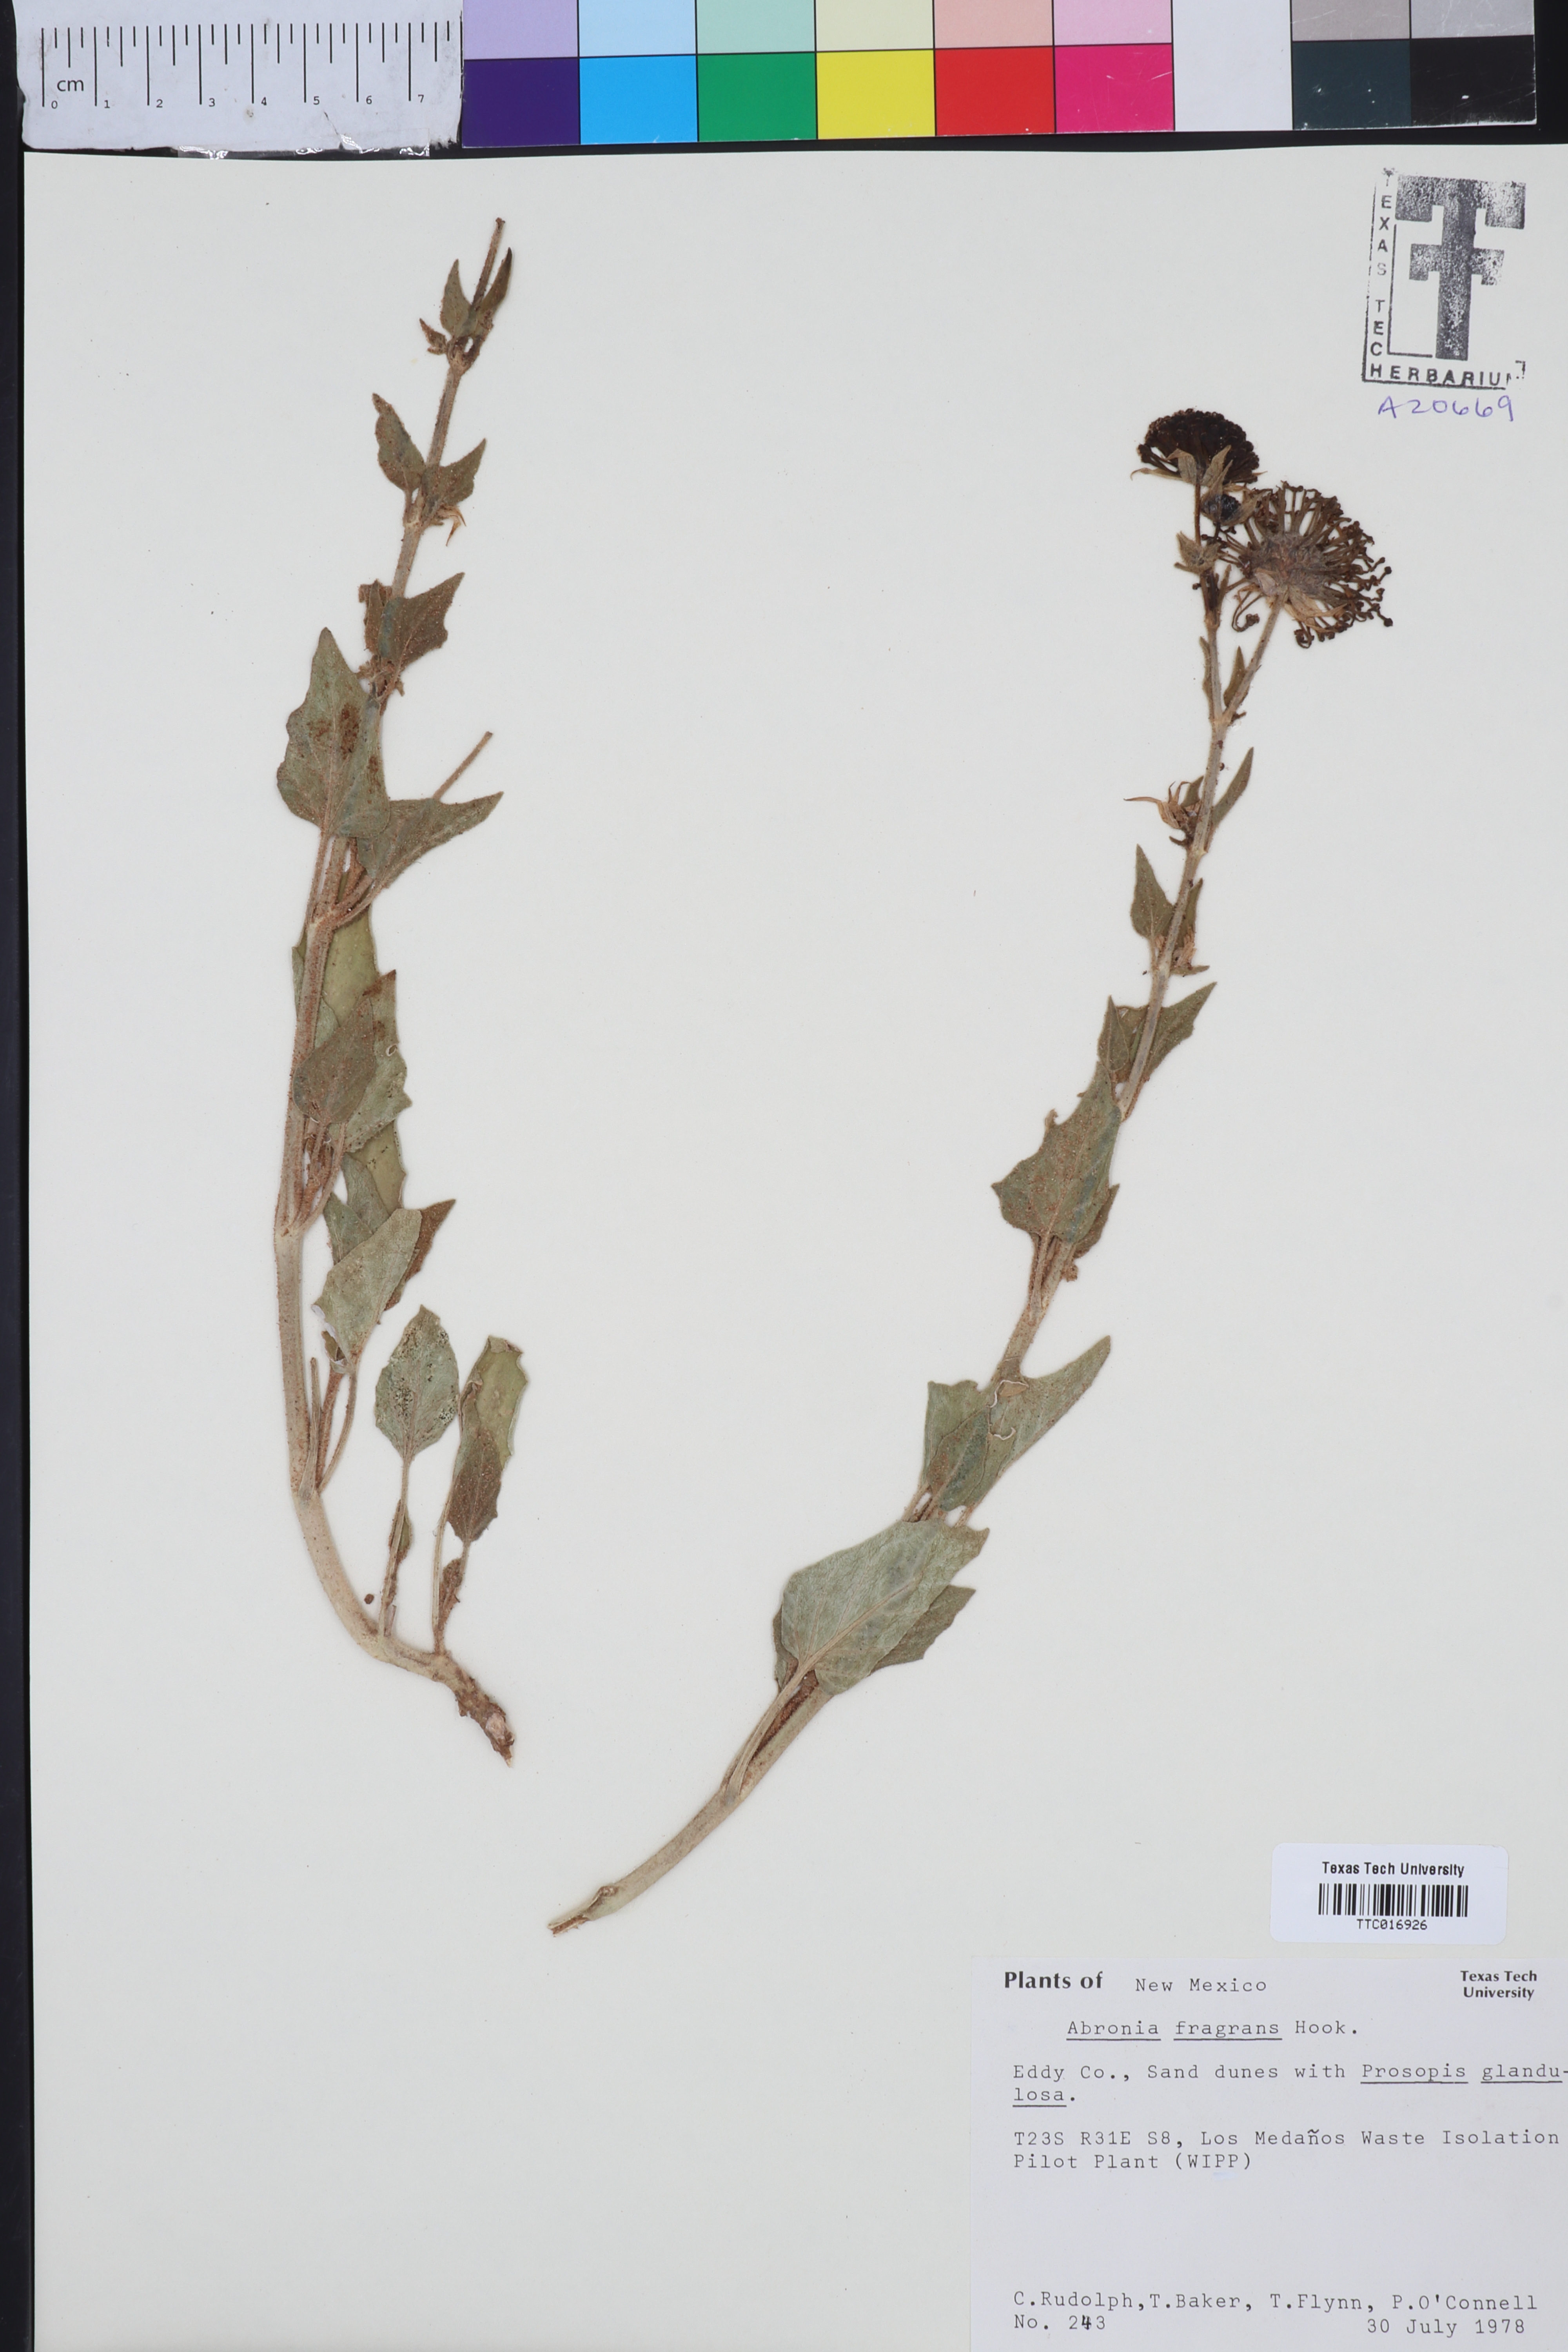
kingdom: Plantae
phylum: Tracheophyta
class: Magnoliopsida
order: Caryophyllales
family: Nyctaginaceae
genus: Abronia
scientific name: Abronia fragrans
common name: Fragrant sand-verbena
